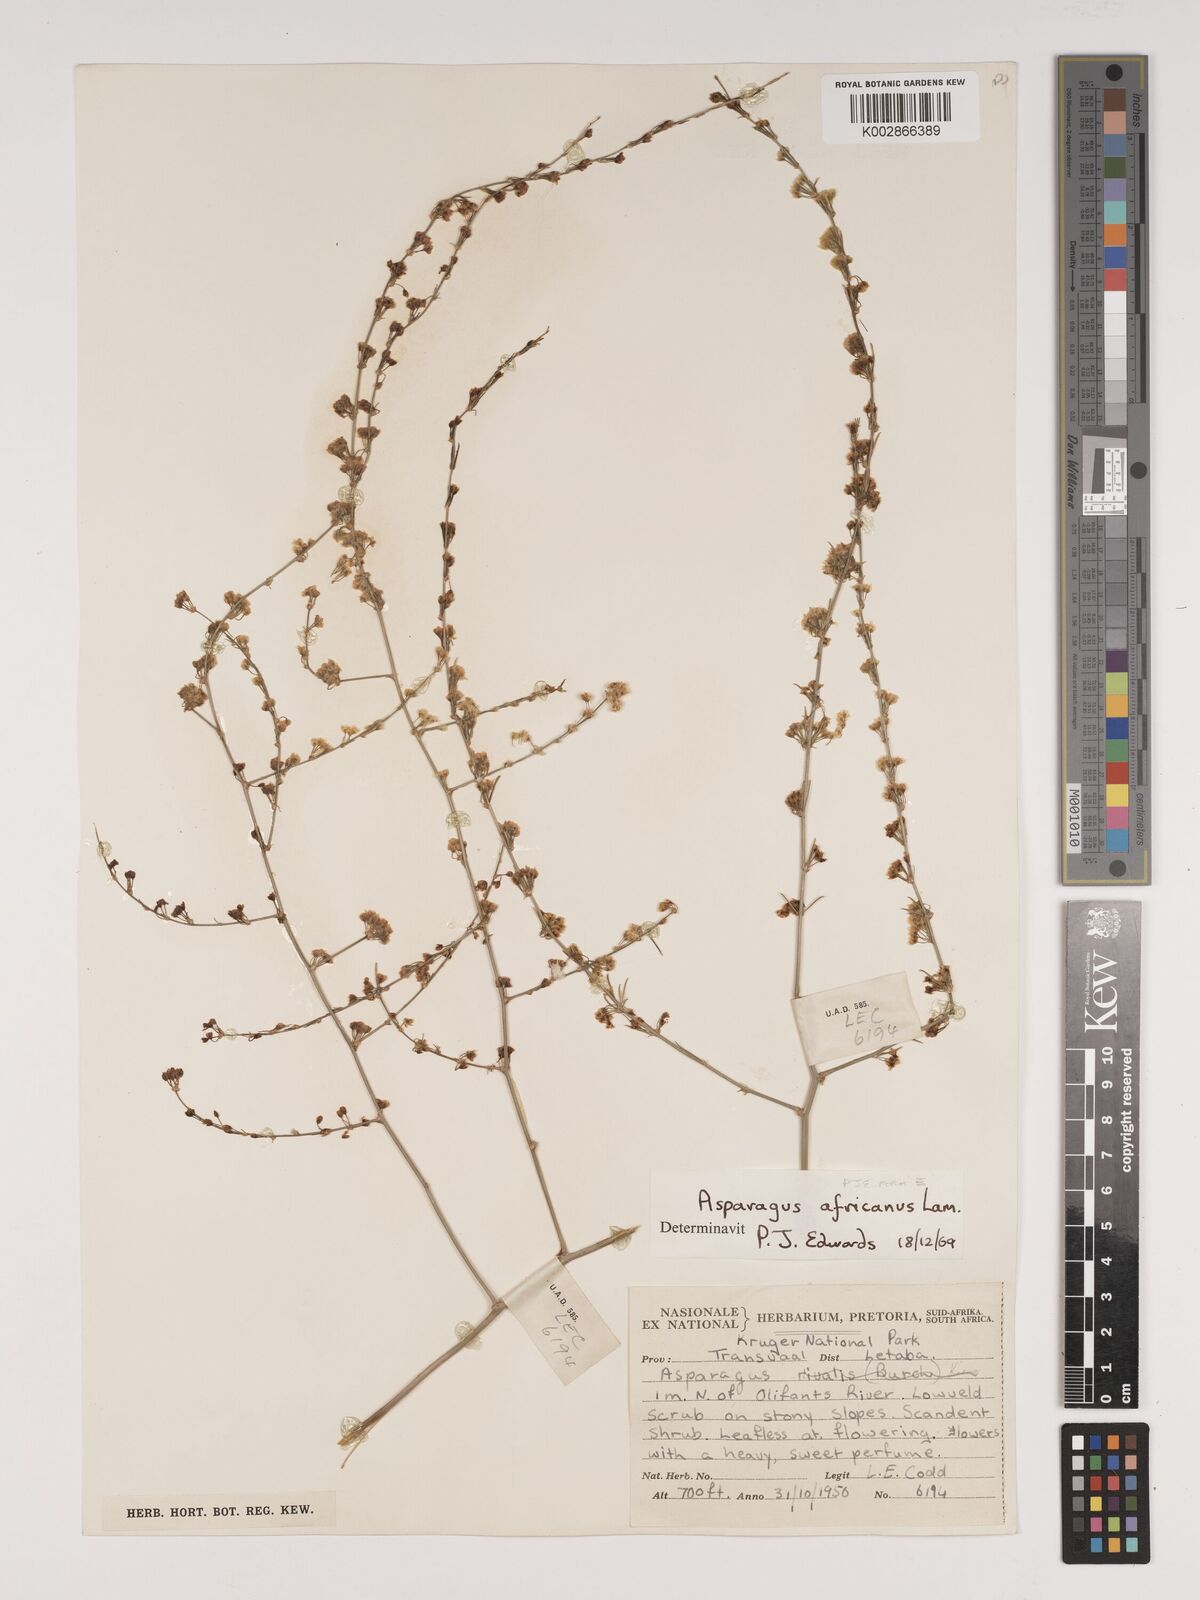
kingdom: Plantae
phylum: Tracheophyta
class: Liliopsida
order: Asparagales
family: Asparagaceae
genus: Asparagus
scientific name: Asparagus africanus
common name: Asparagus-fern
